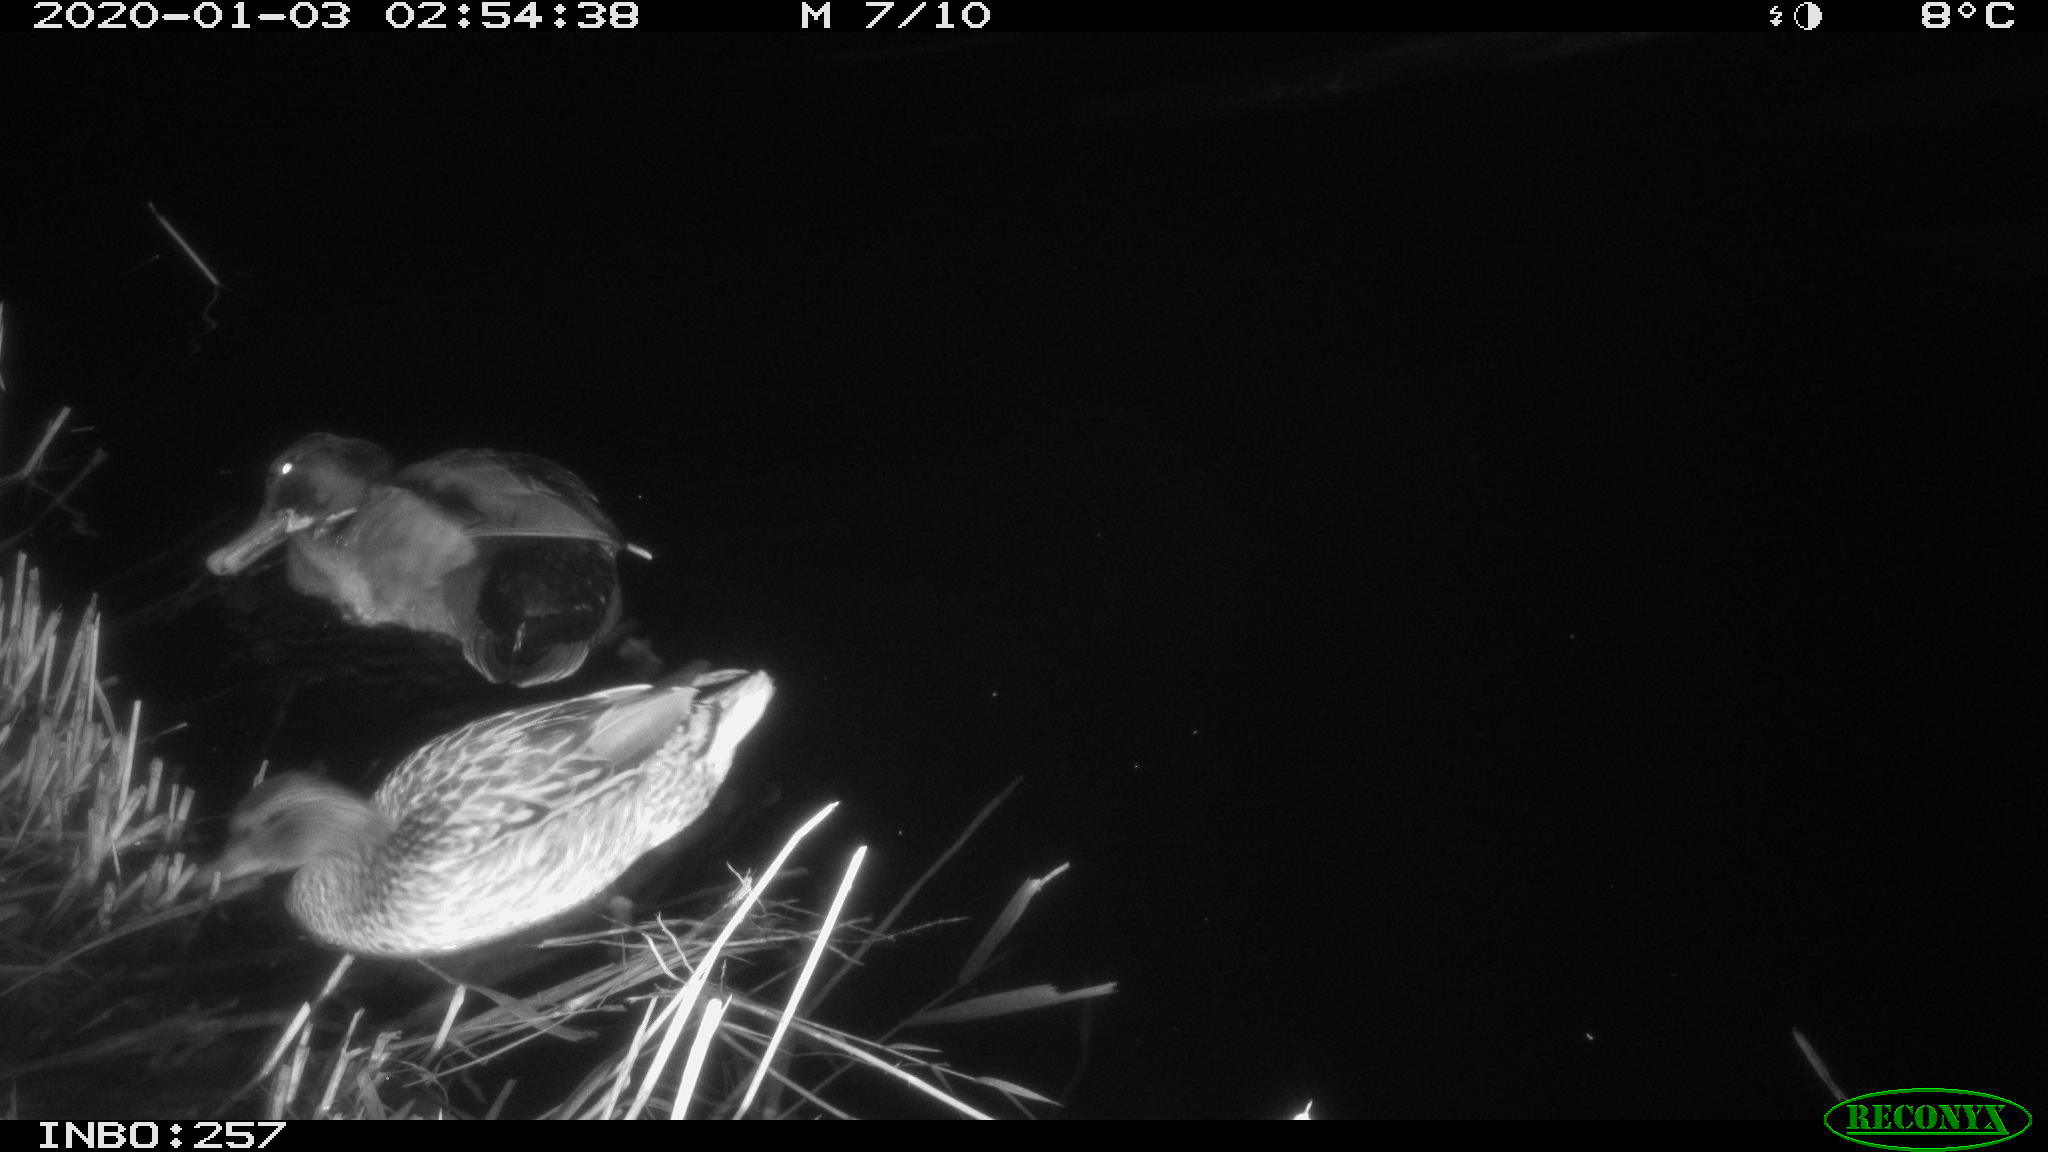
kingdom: Animalia
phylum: Chordata
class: Aves
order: Anseriformes
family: Anatidae
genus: Anas
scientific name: Anas platyrhynchos
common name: Mallard
